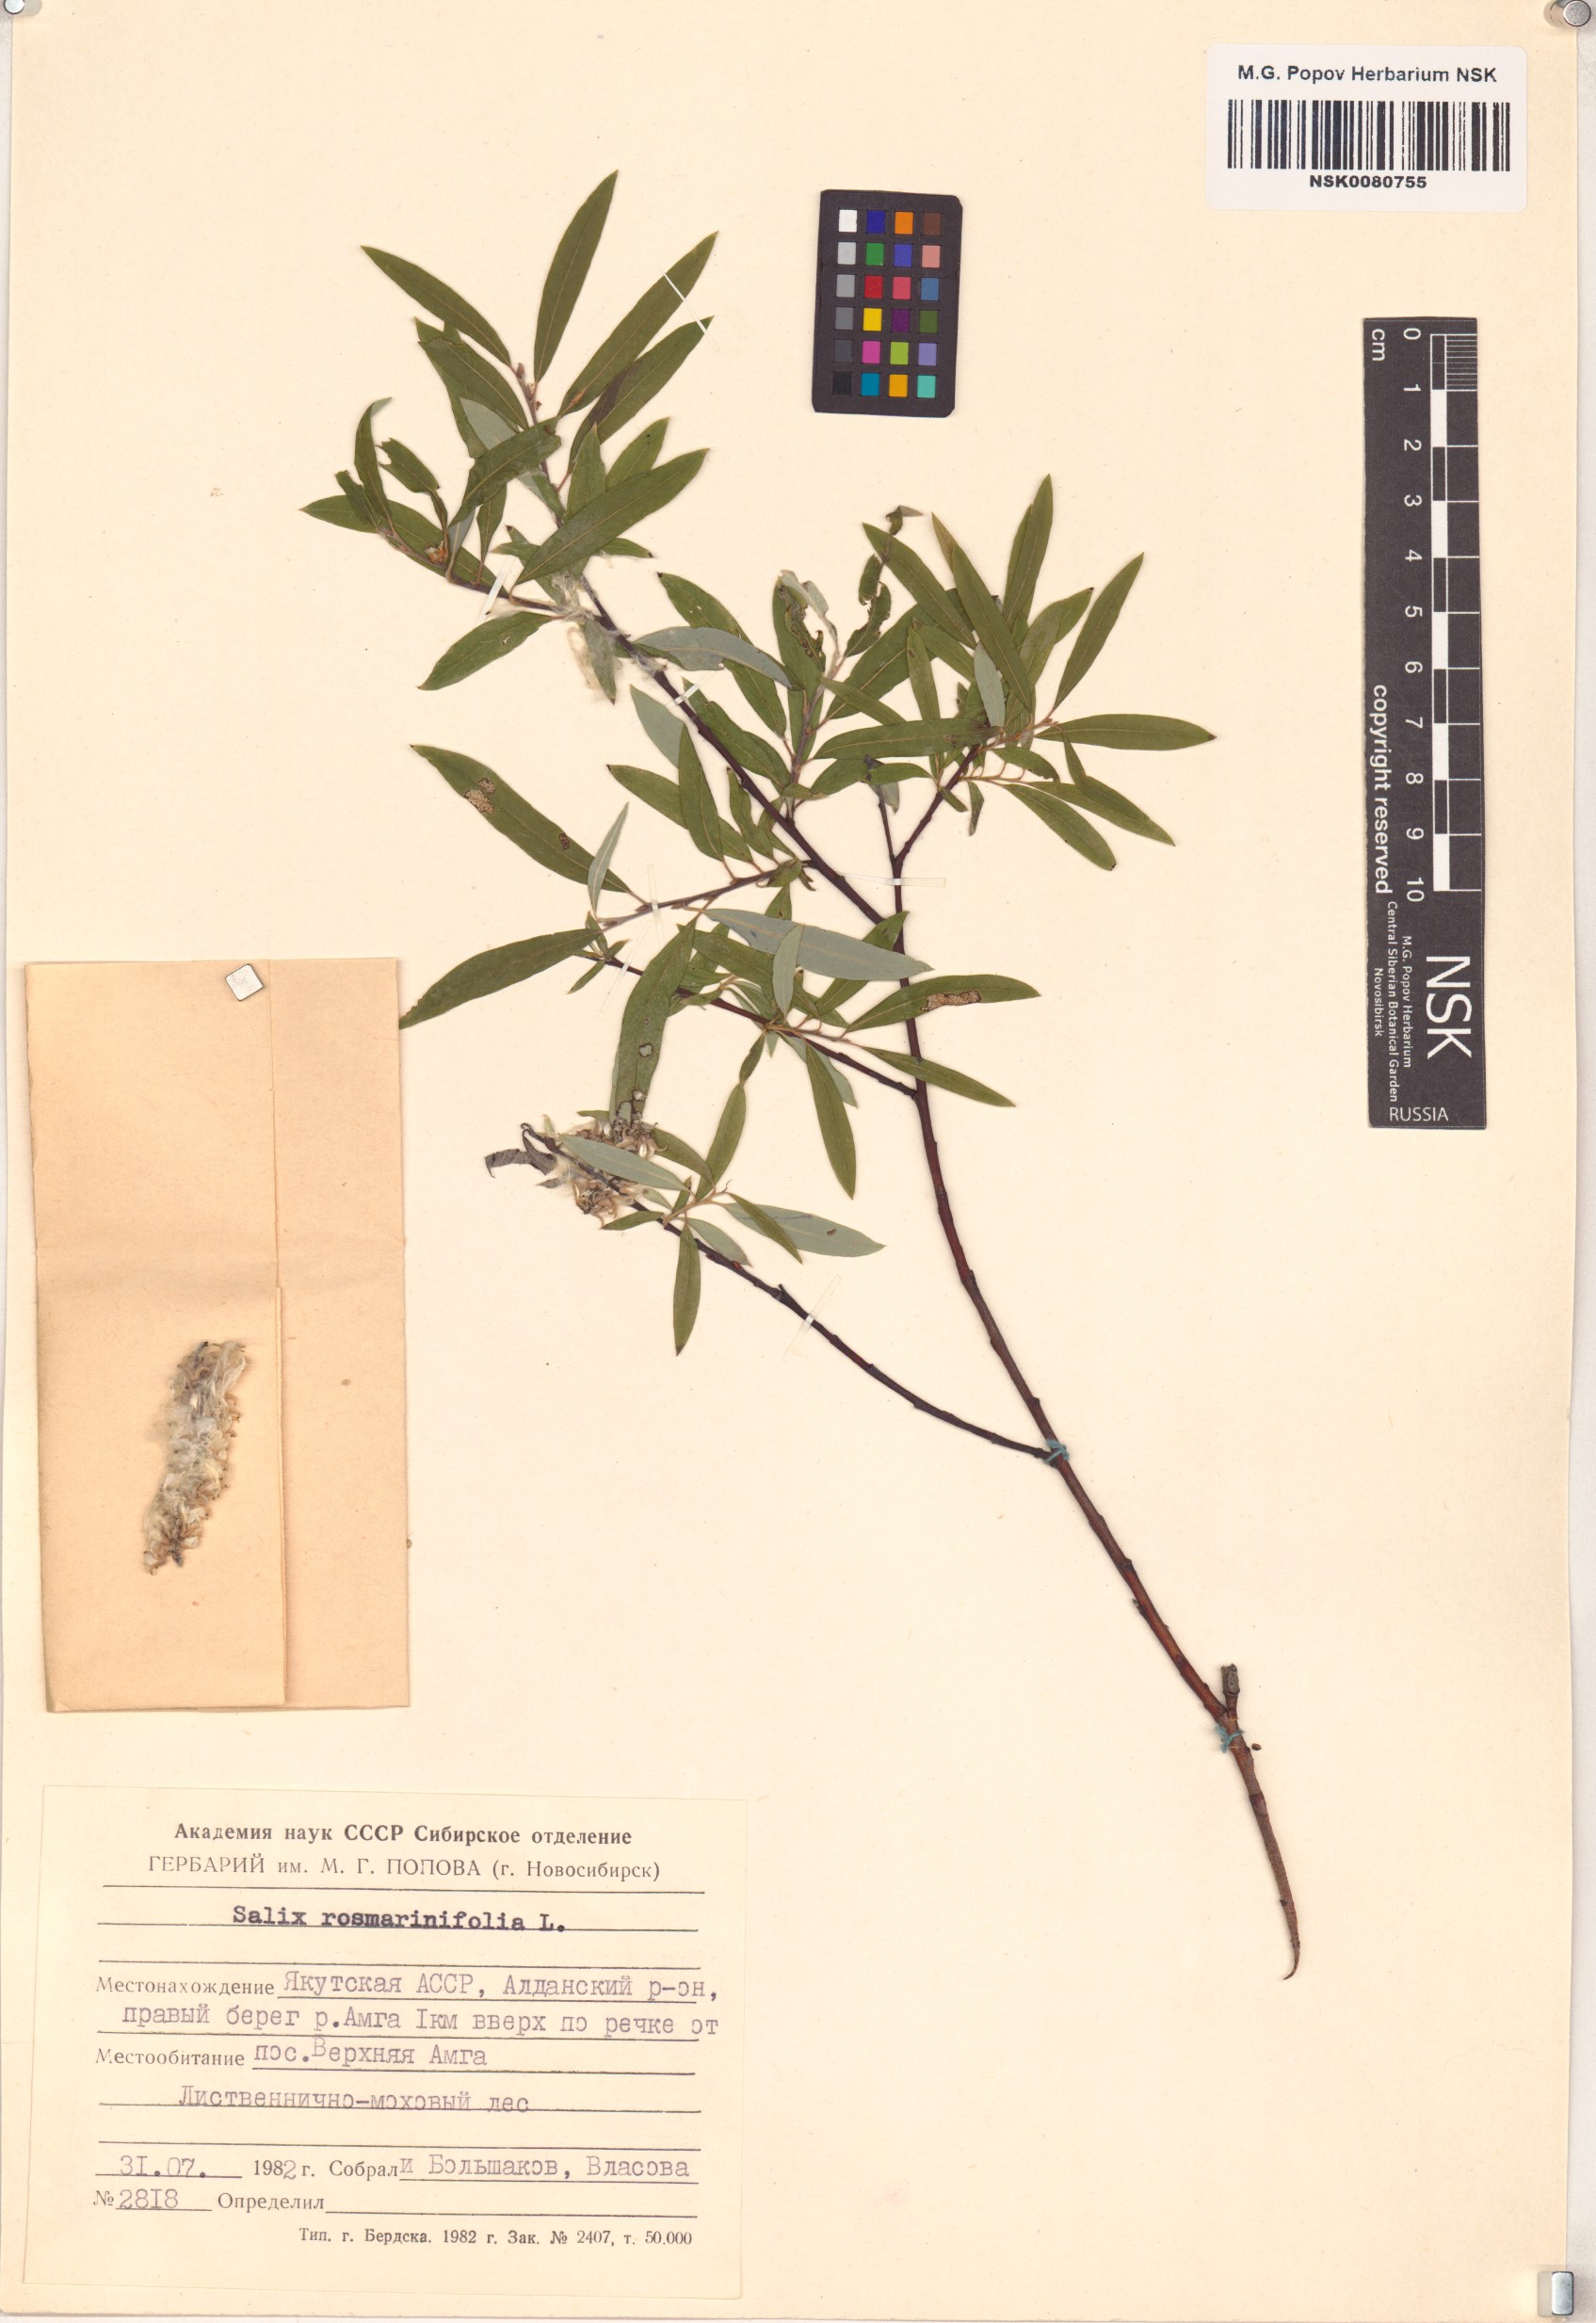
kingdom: Plantae
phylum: Tracheophyta
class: Magnoliopsida
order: Malpighiales
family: Salicaceae
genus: Salix
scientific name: Salix rosmarinifolia
